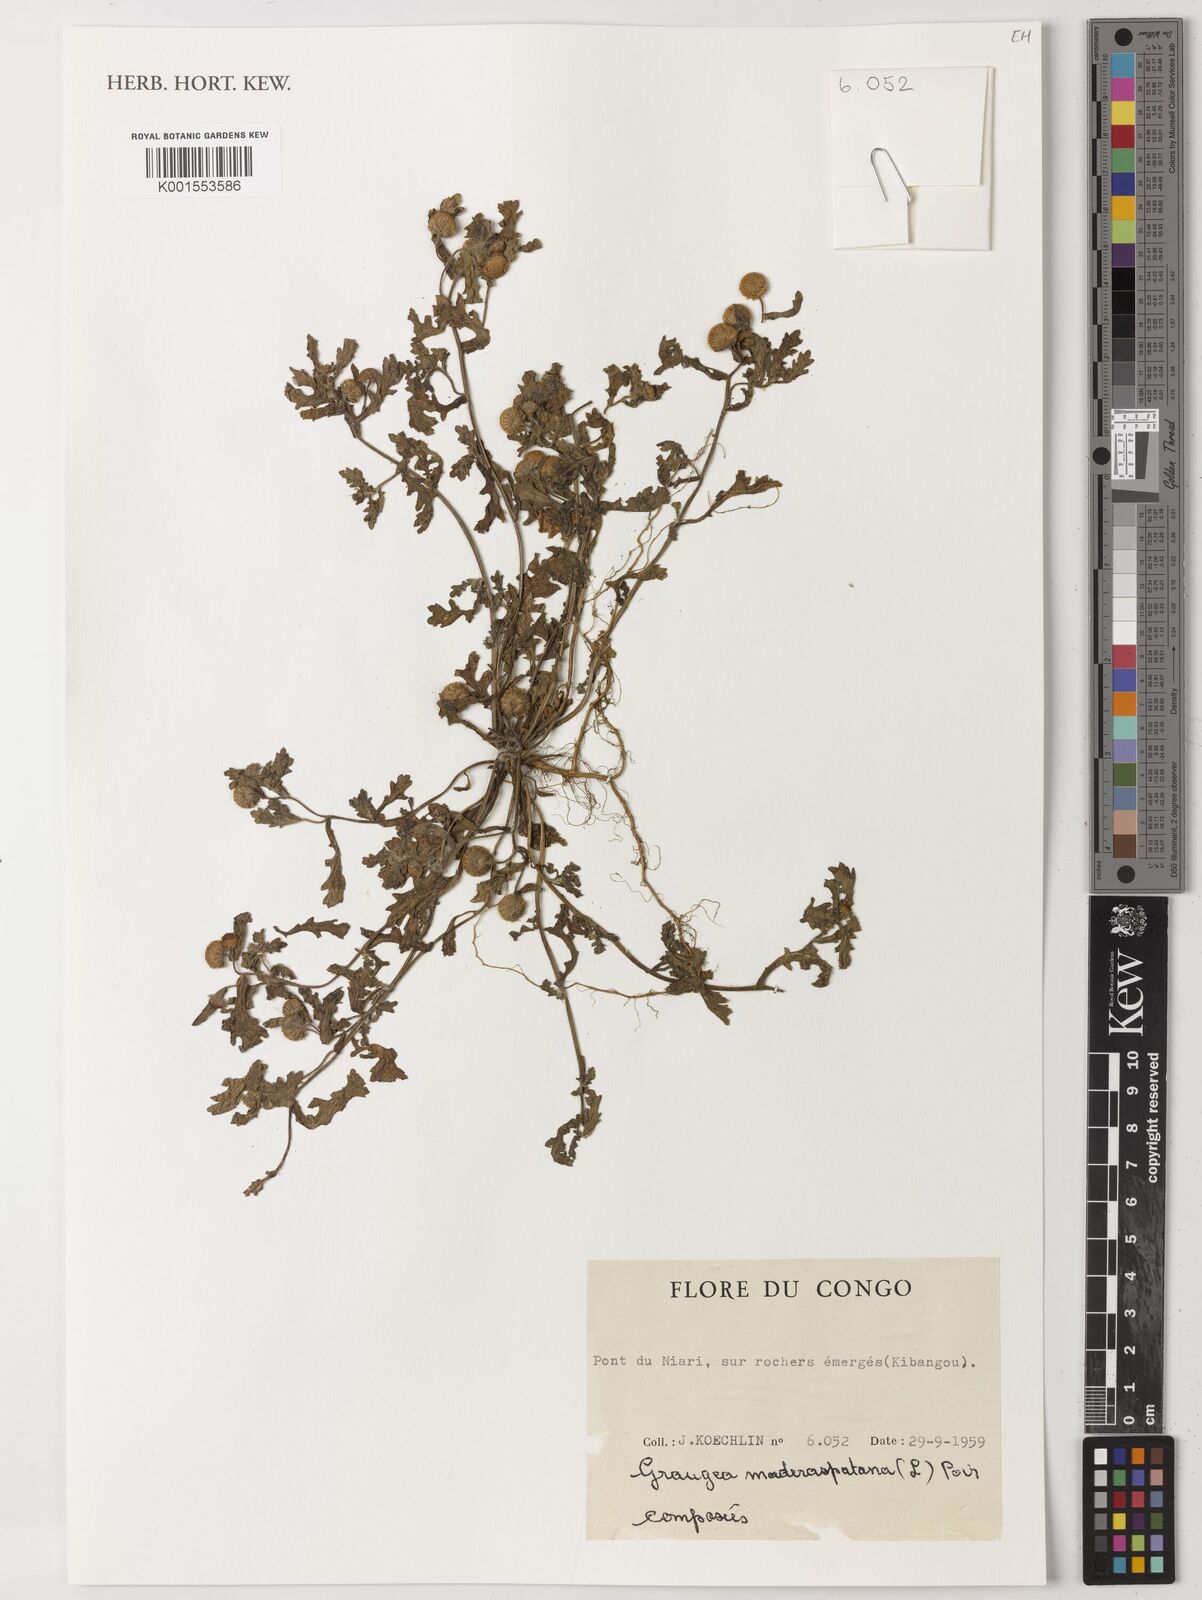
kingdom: Plantae
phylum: Tracheophyta
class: Magnoliopsida
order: Asterales
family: Asteraceae
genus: Grangea
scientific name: Grangea maderaspatana
